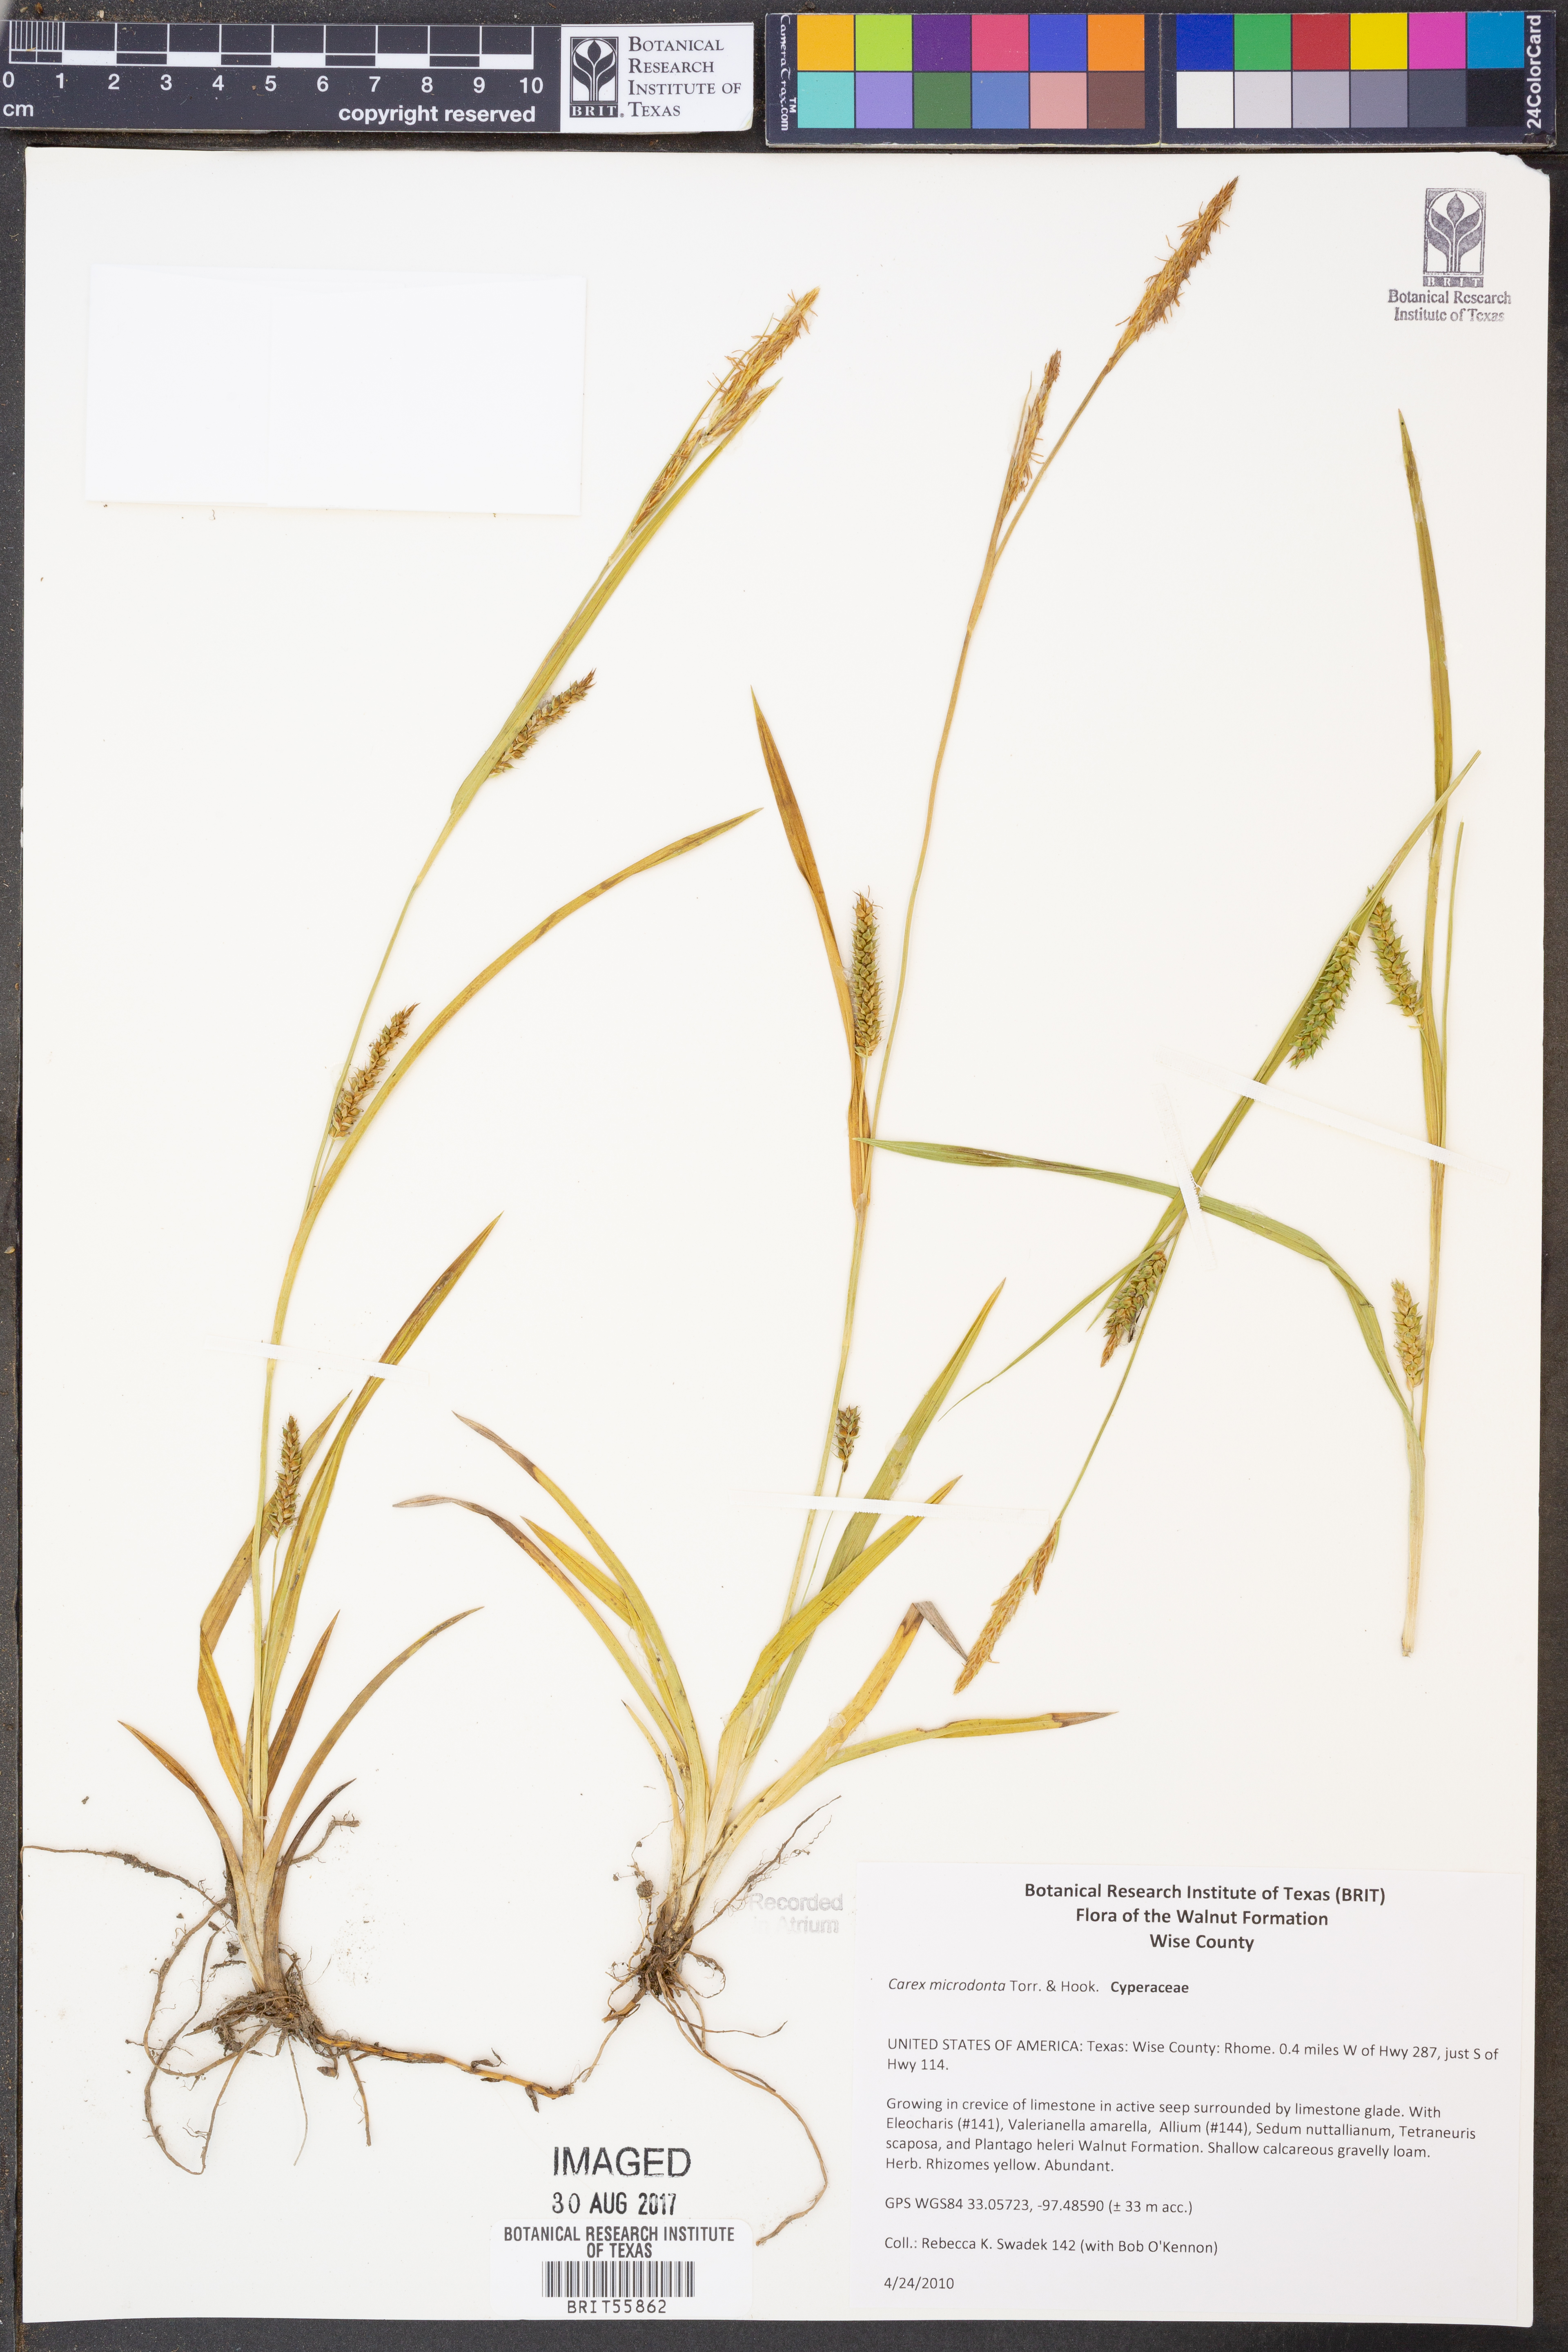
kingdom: Plantae
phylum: Tracheophyta
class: Liliopsida
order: Poales
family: Cyperaceae
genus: Carex
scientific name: Carex microdonta
